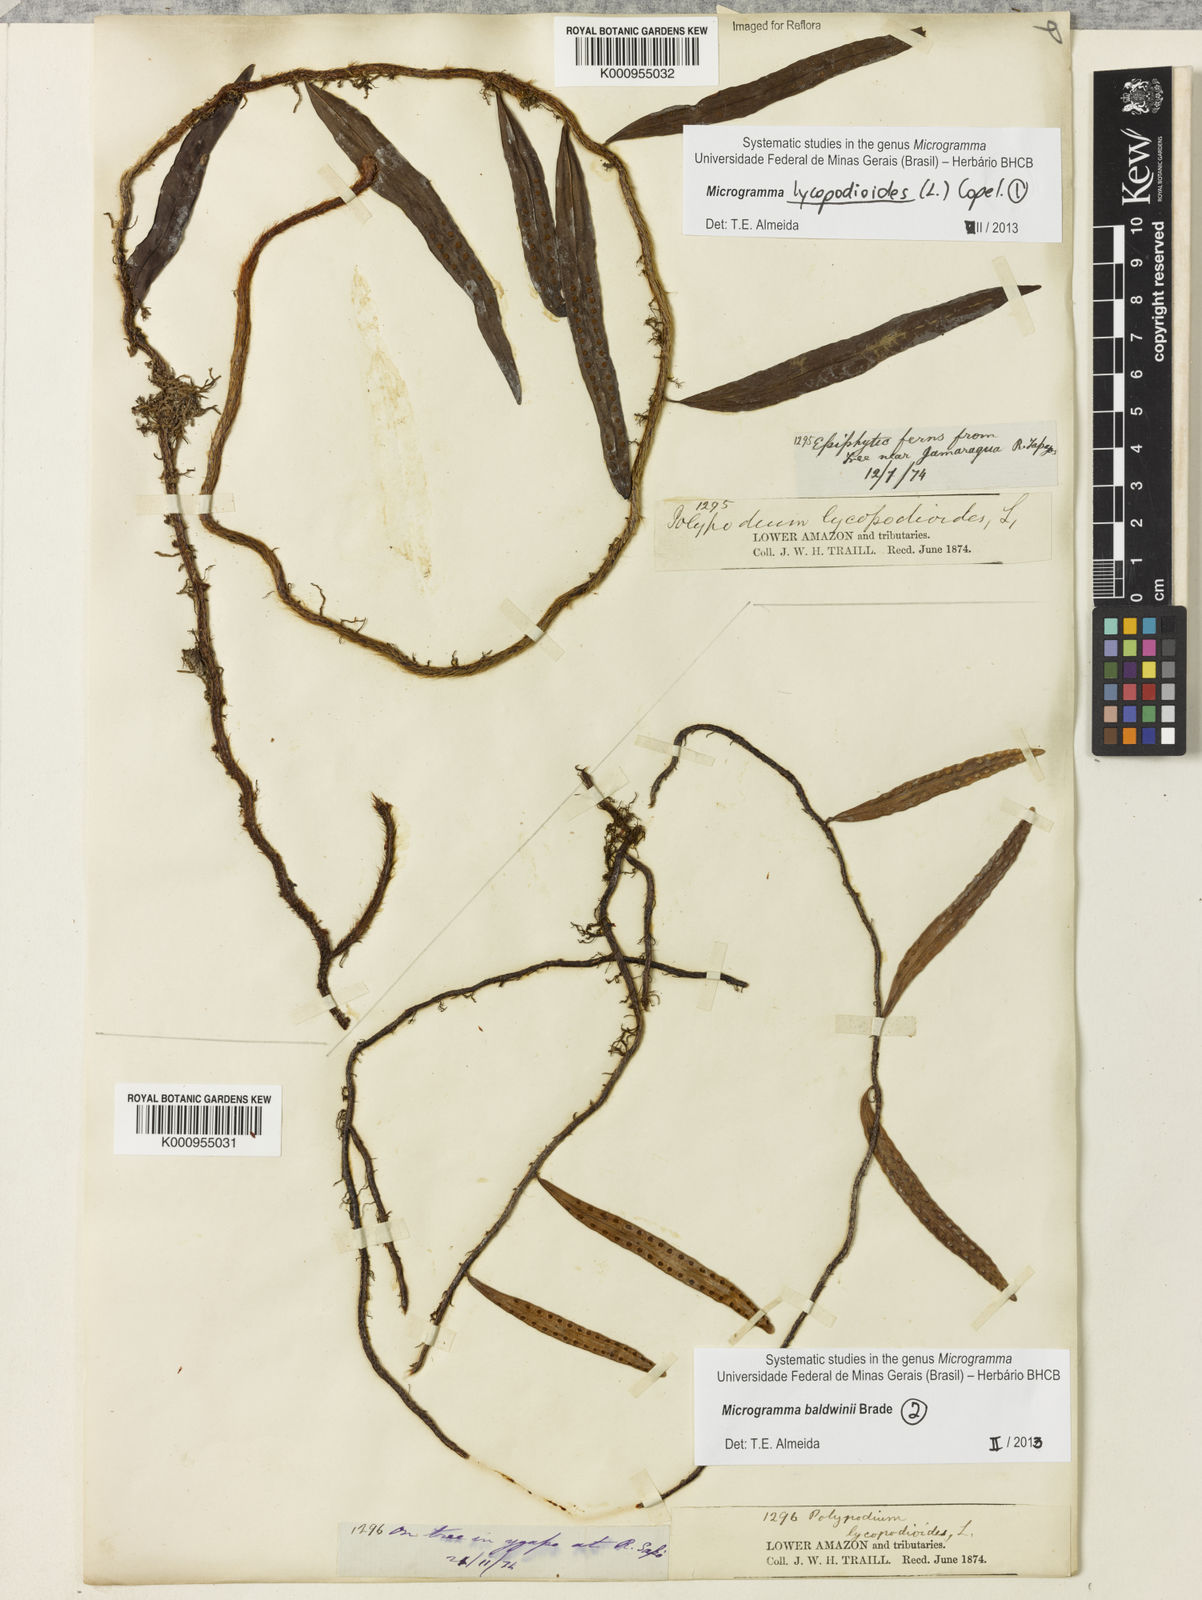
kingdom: Plantae
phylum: Tracheophyta
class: Polypodiopsida
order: Polypodiales
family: Polypodiaceae
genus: Microgramma
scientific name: Microgramma lycopodioides
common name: Bastard catclaw
